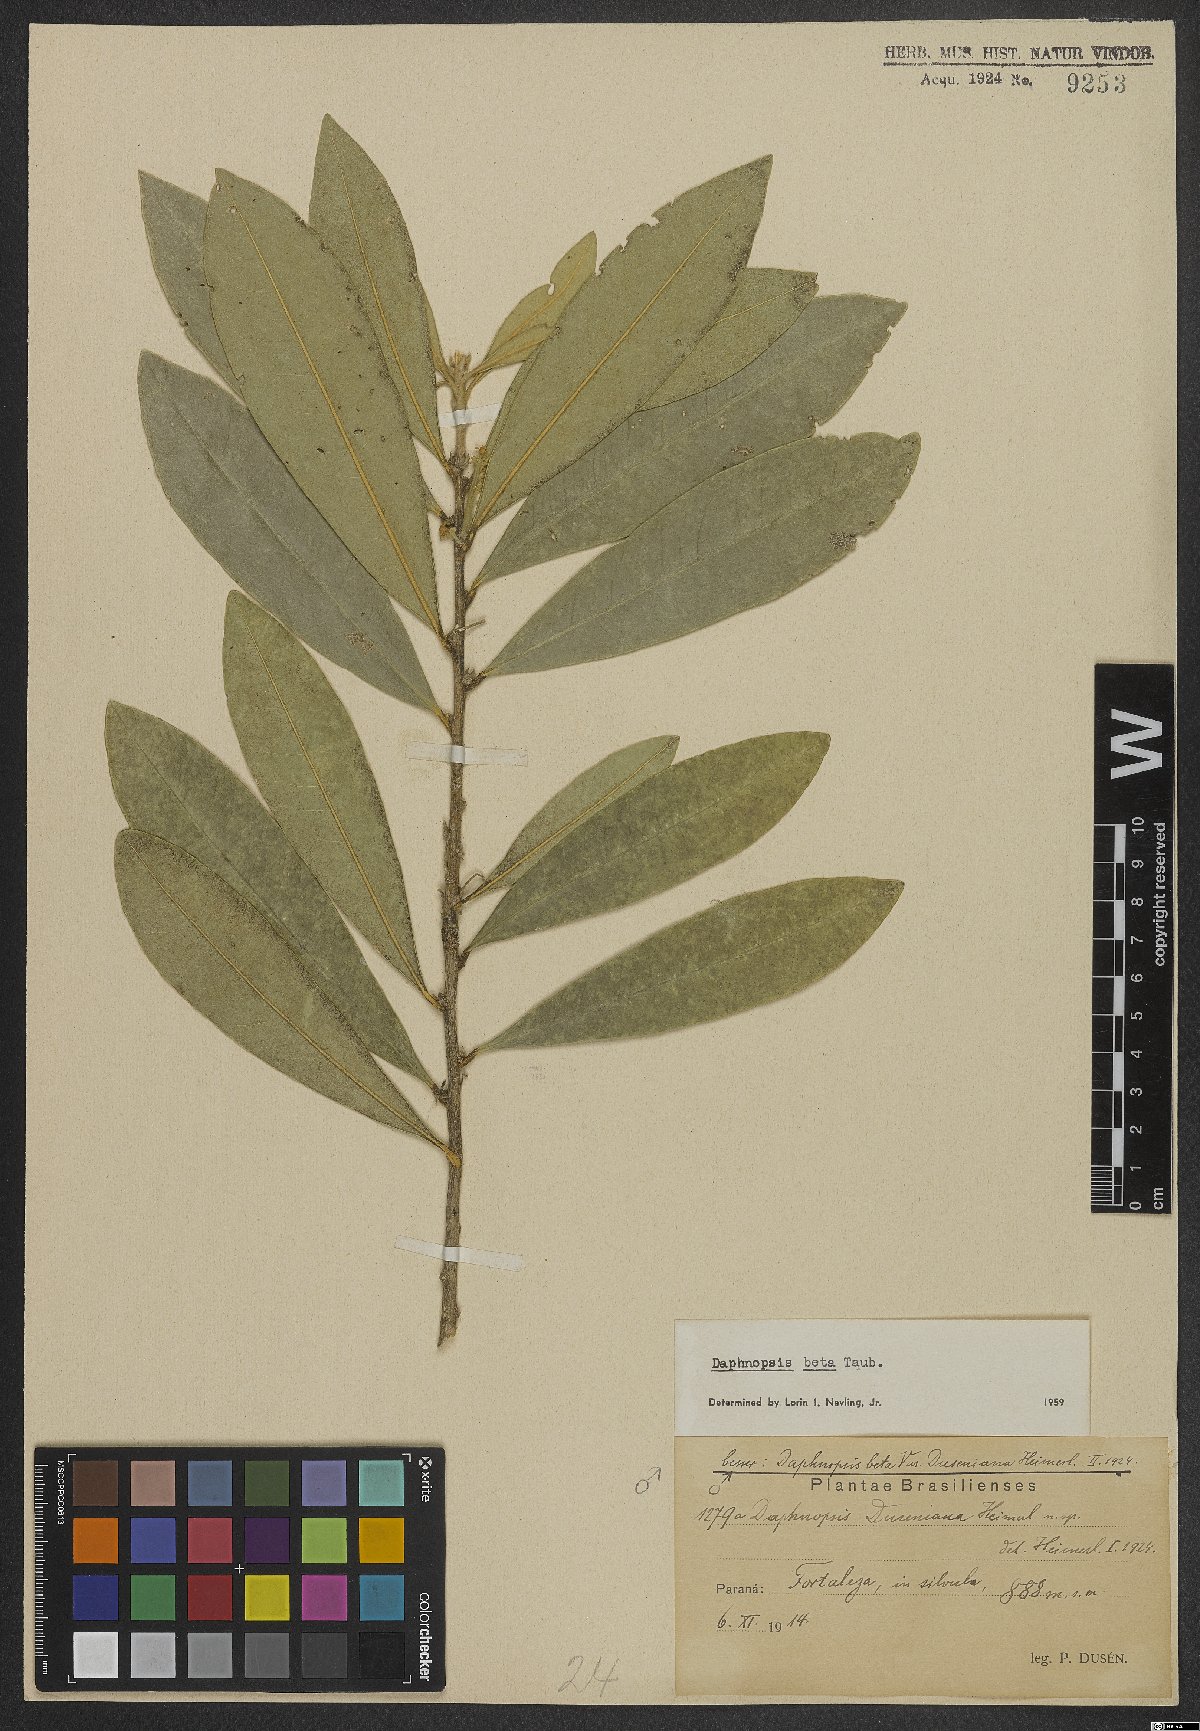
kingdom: Plantae
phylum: Tracheophyta
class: Magnoliopsida
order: Malvales
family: Thymelaeaceae
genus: Daphnopsis
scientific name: Daphnopsis fasciculata
